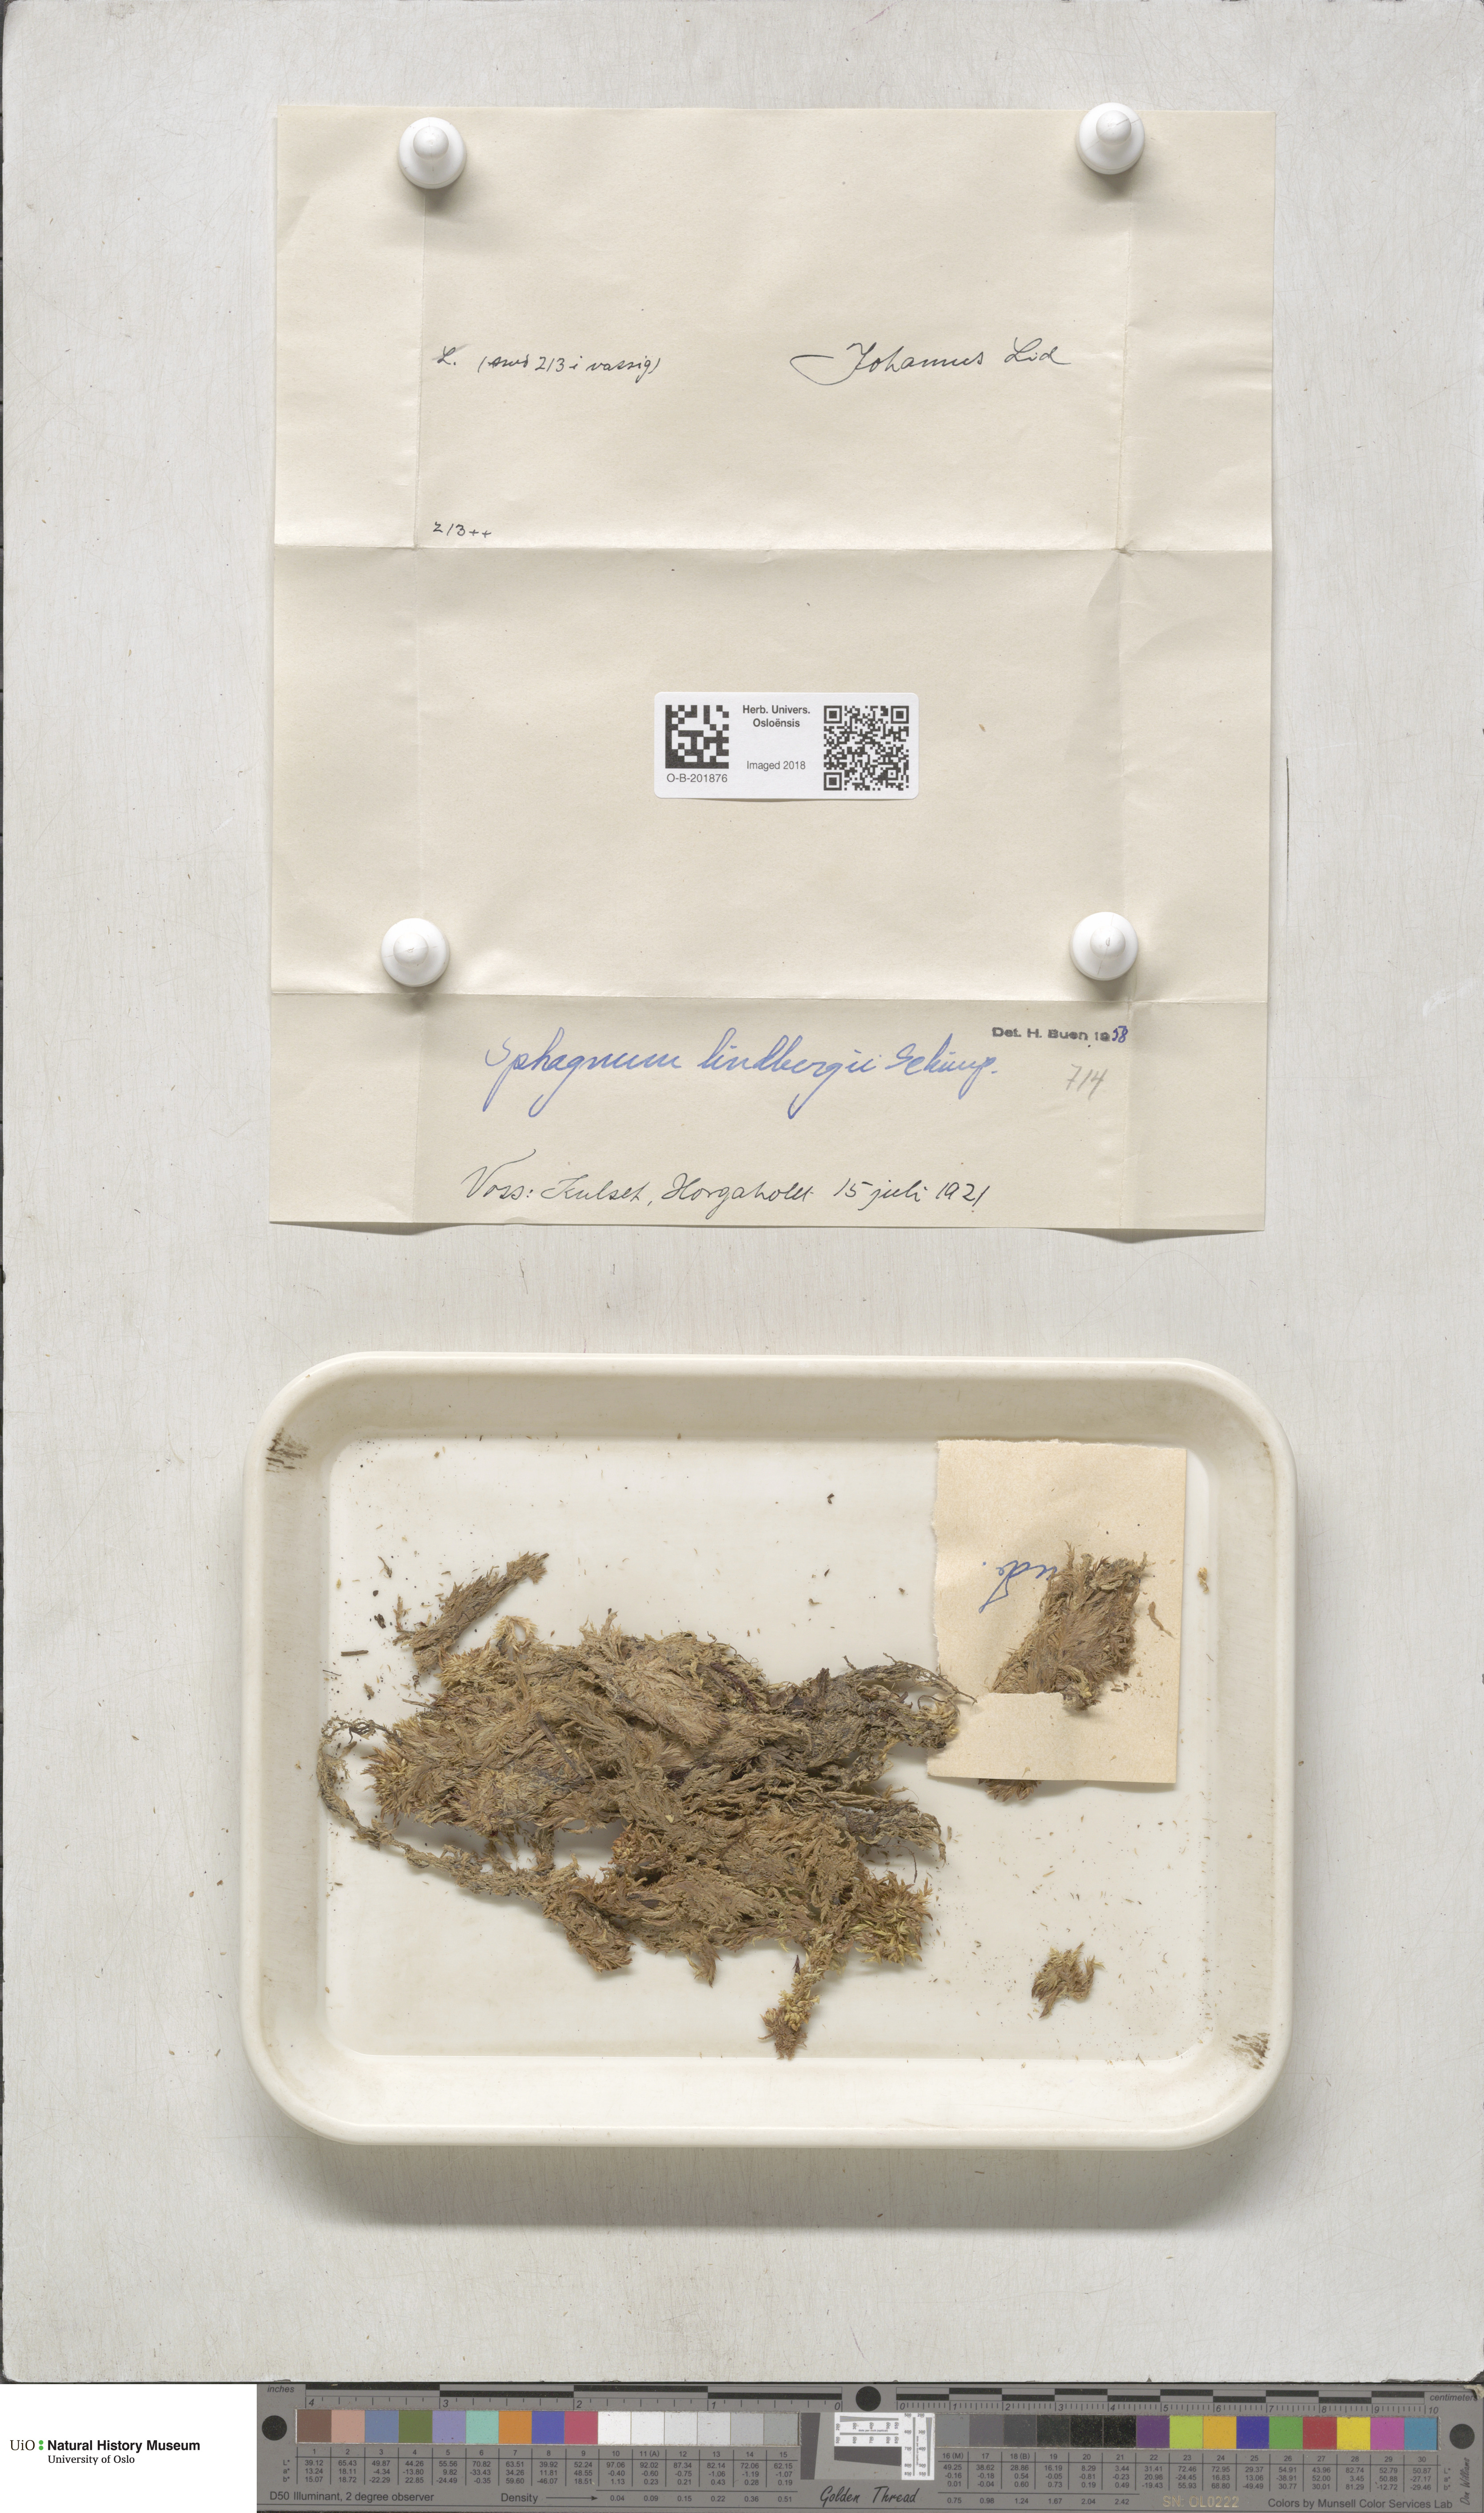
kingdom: Plantae
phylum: Bryophyta
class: Sphagnopsida
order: Sphagnales
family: Sphagnaceae
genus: Sphagnum
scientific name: Sphagnum lindbergii
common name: Lindberg's peat moss
